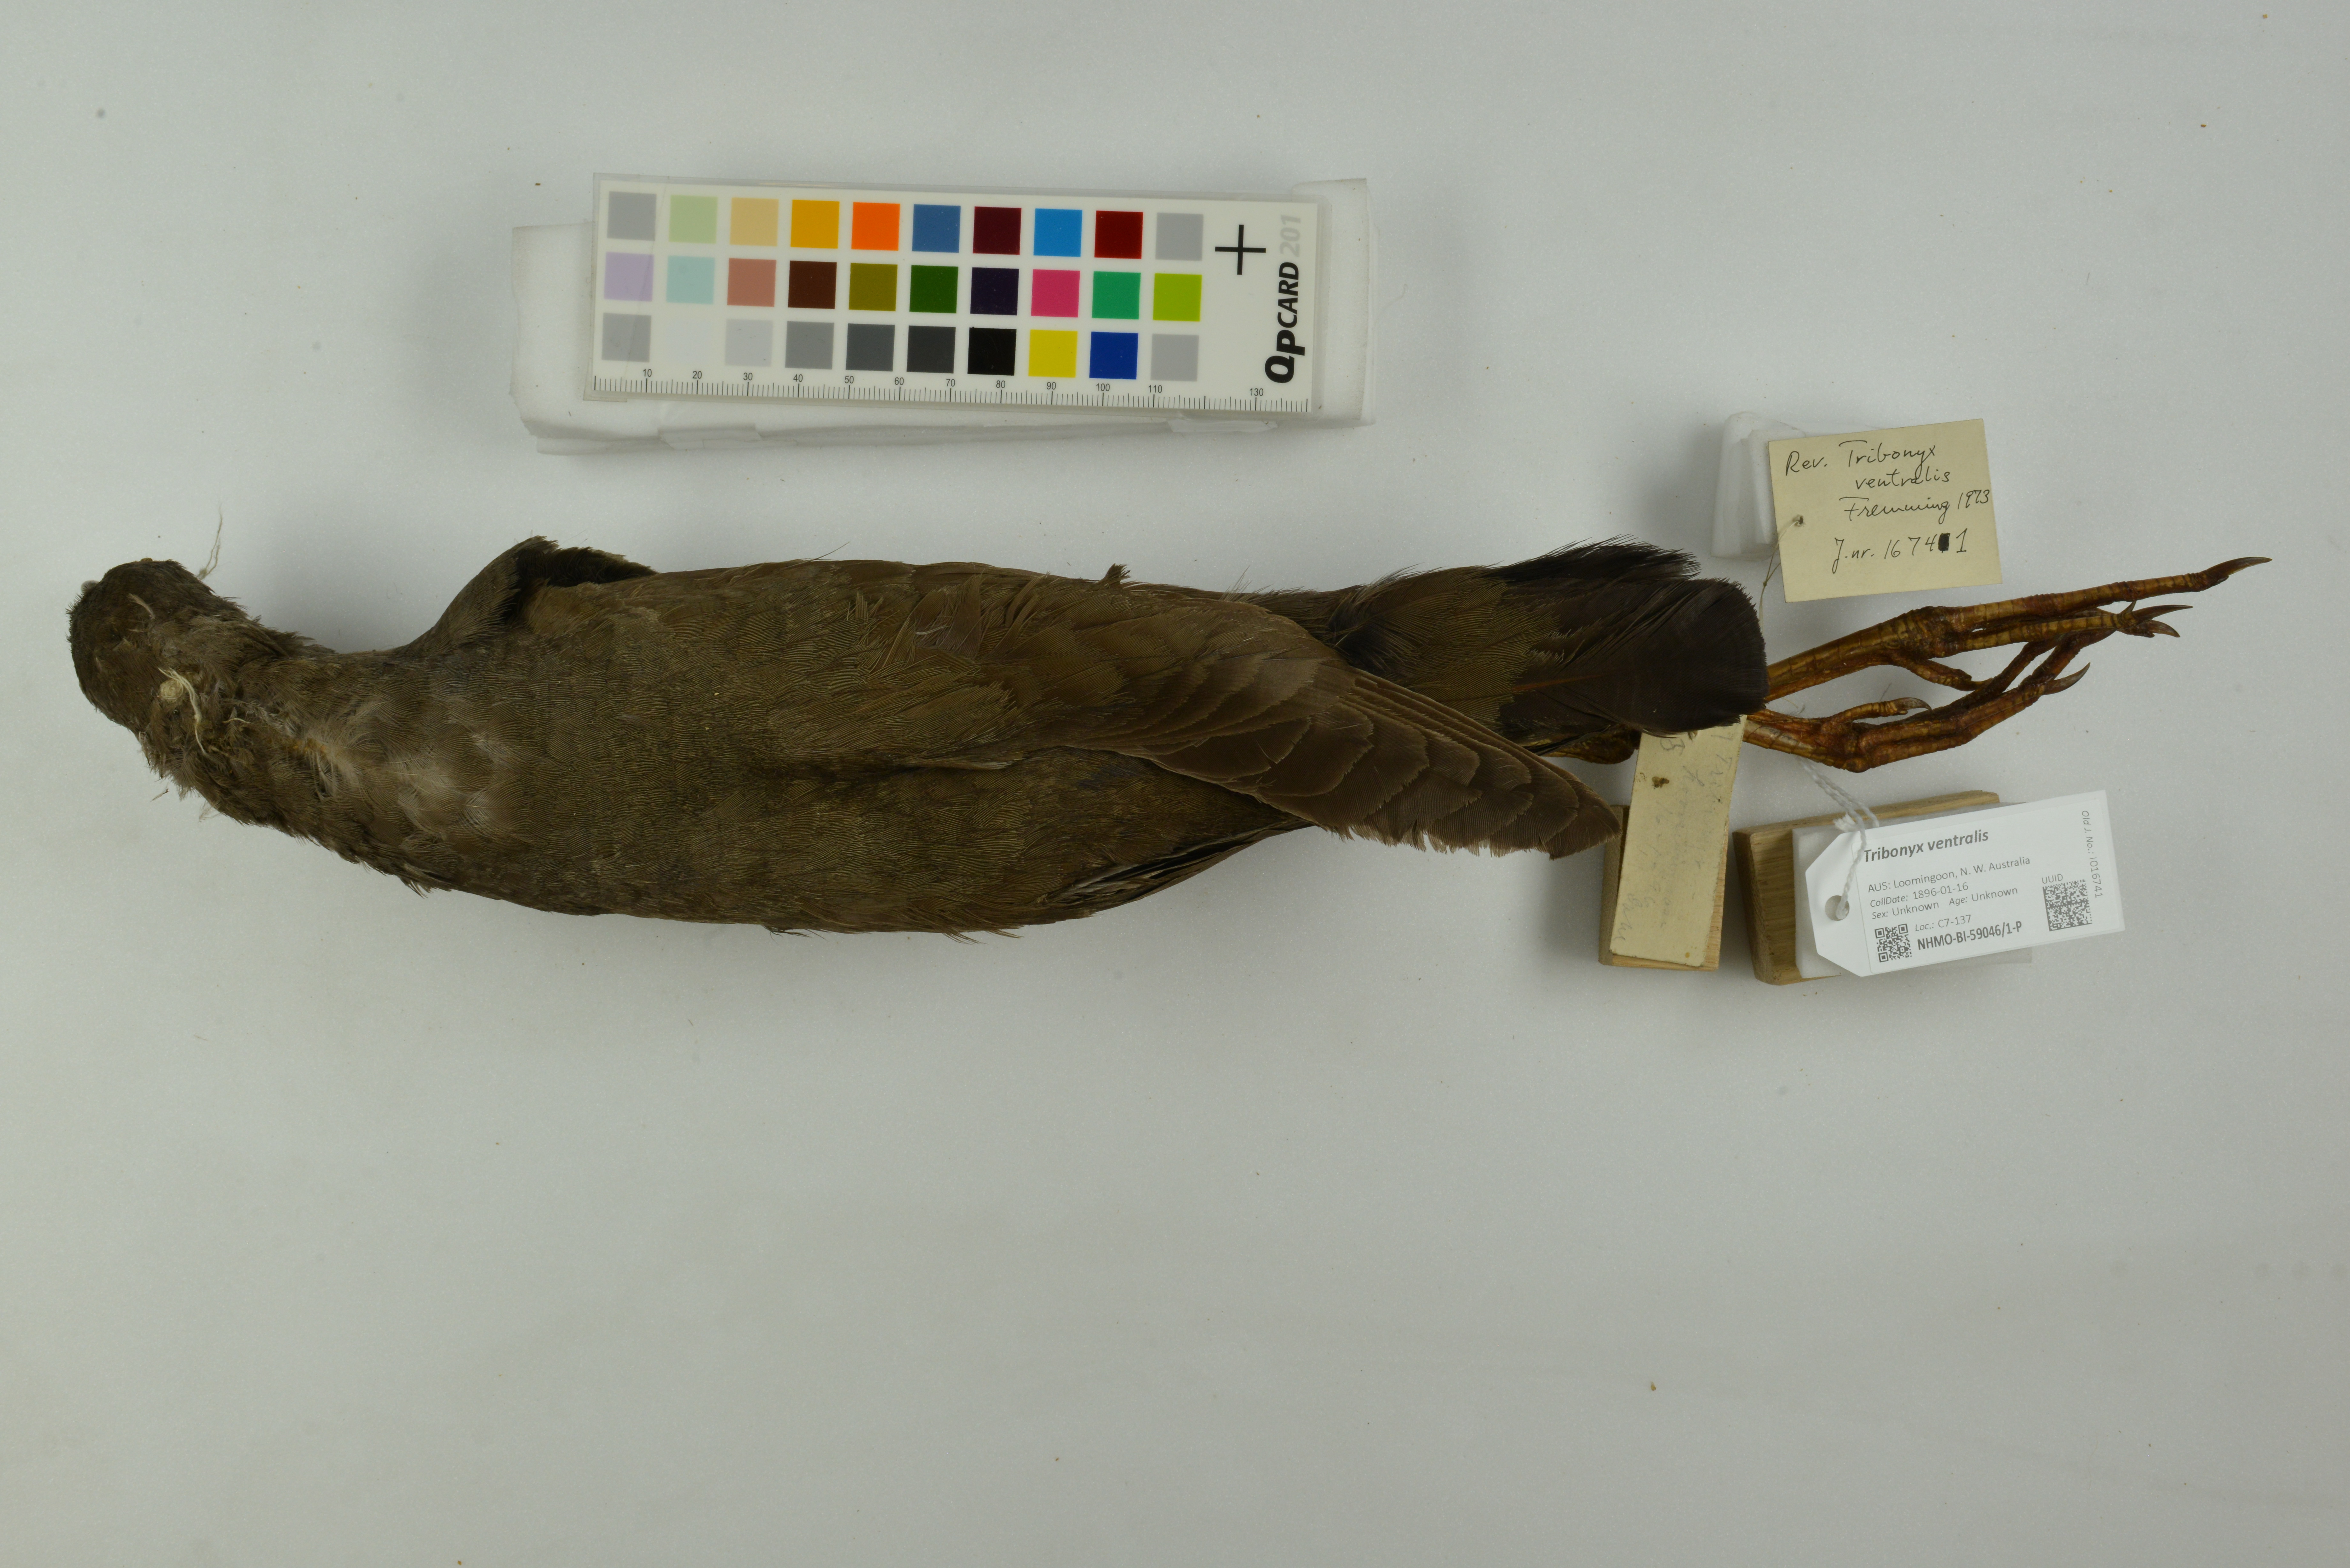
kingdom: Animalia
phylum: Chordata
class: Aves
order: Gruiformes
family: Rallidae
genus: Gallinula
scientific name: Gallinula ventralis
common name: Black-tailed nativehen
